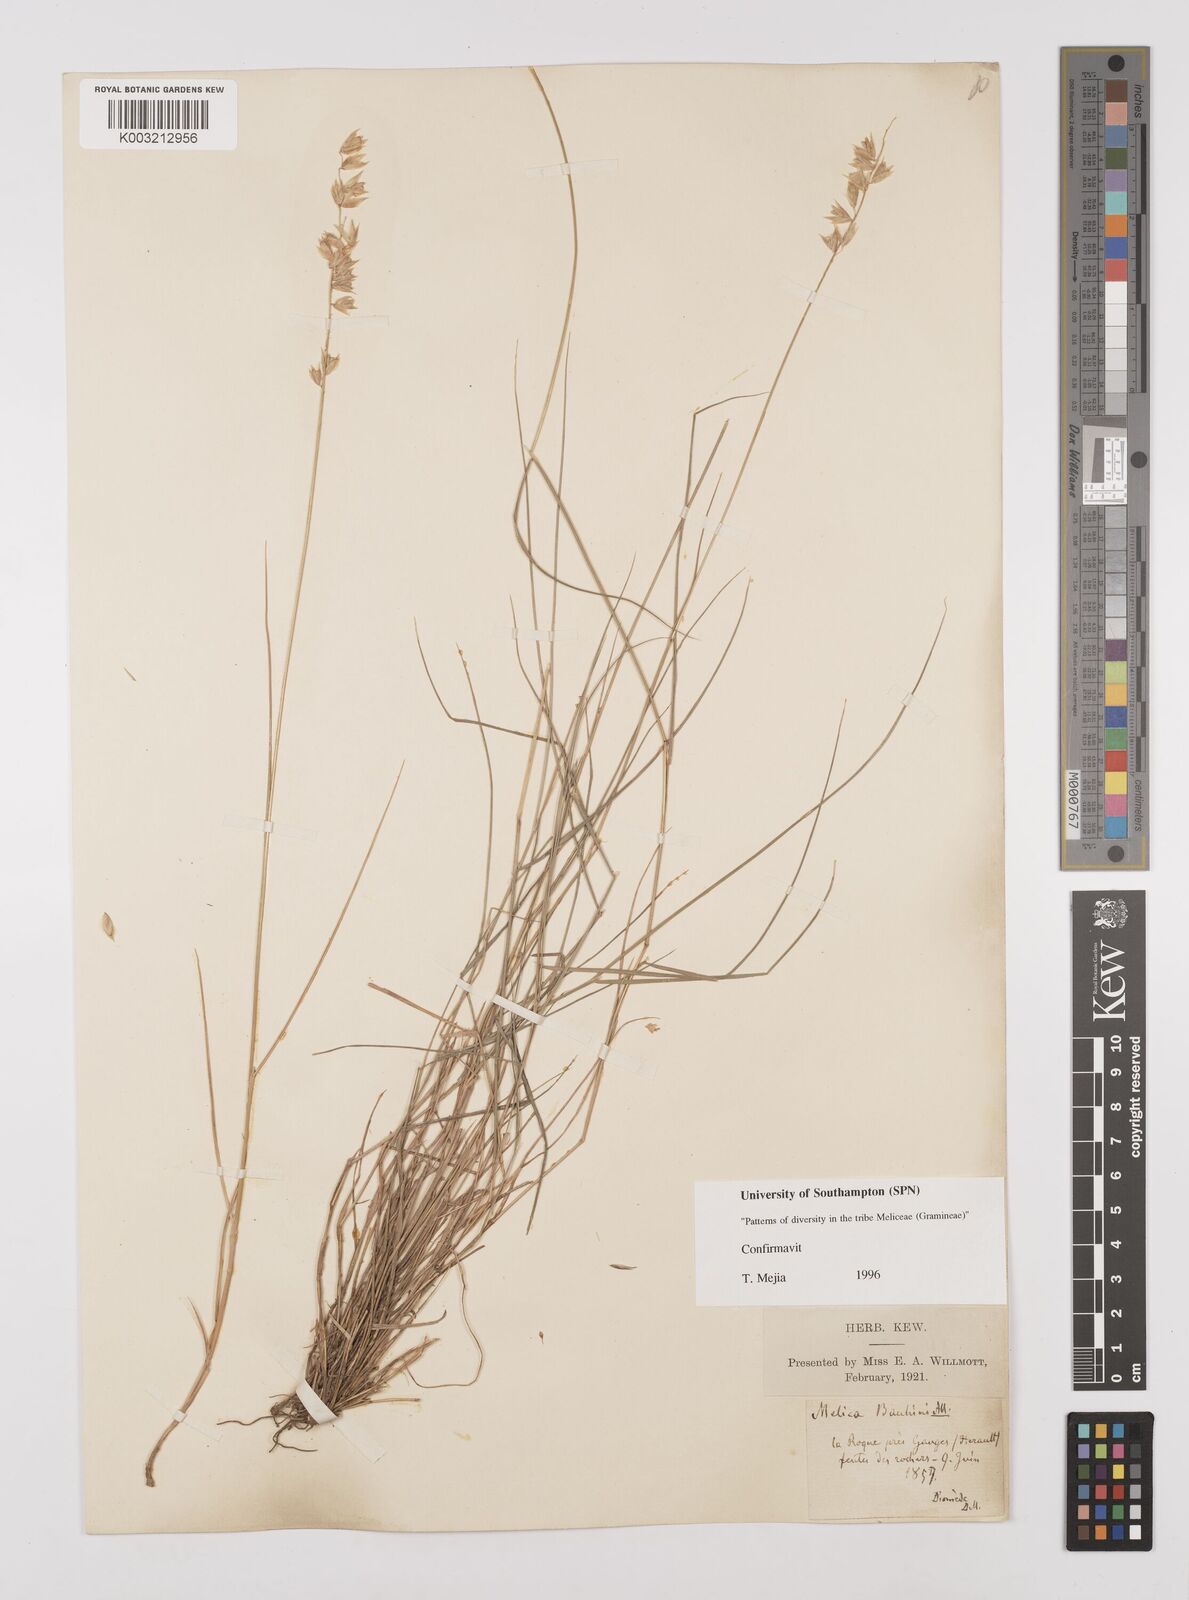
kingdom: Plantae
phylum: Tracheophyta
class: Liliopsida
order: Poales
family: Poaceae
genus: Melica
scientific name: Melica amethystina
